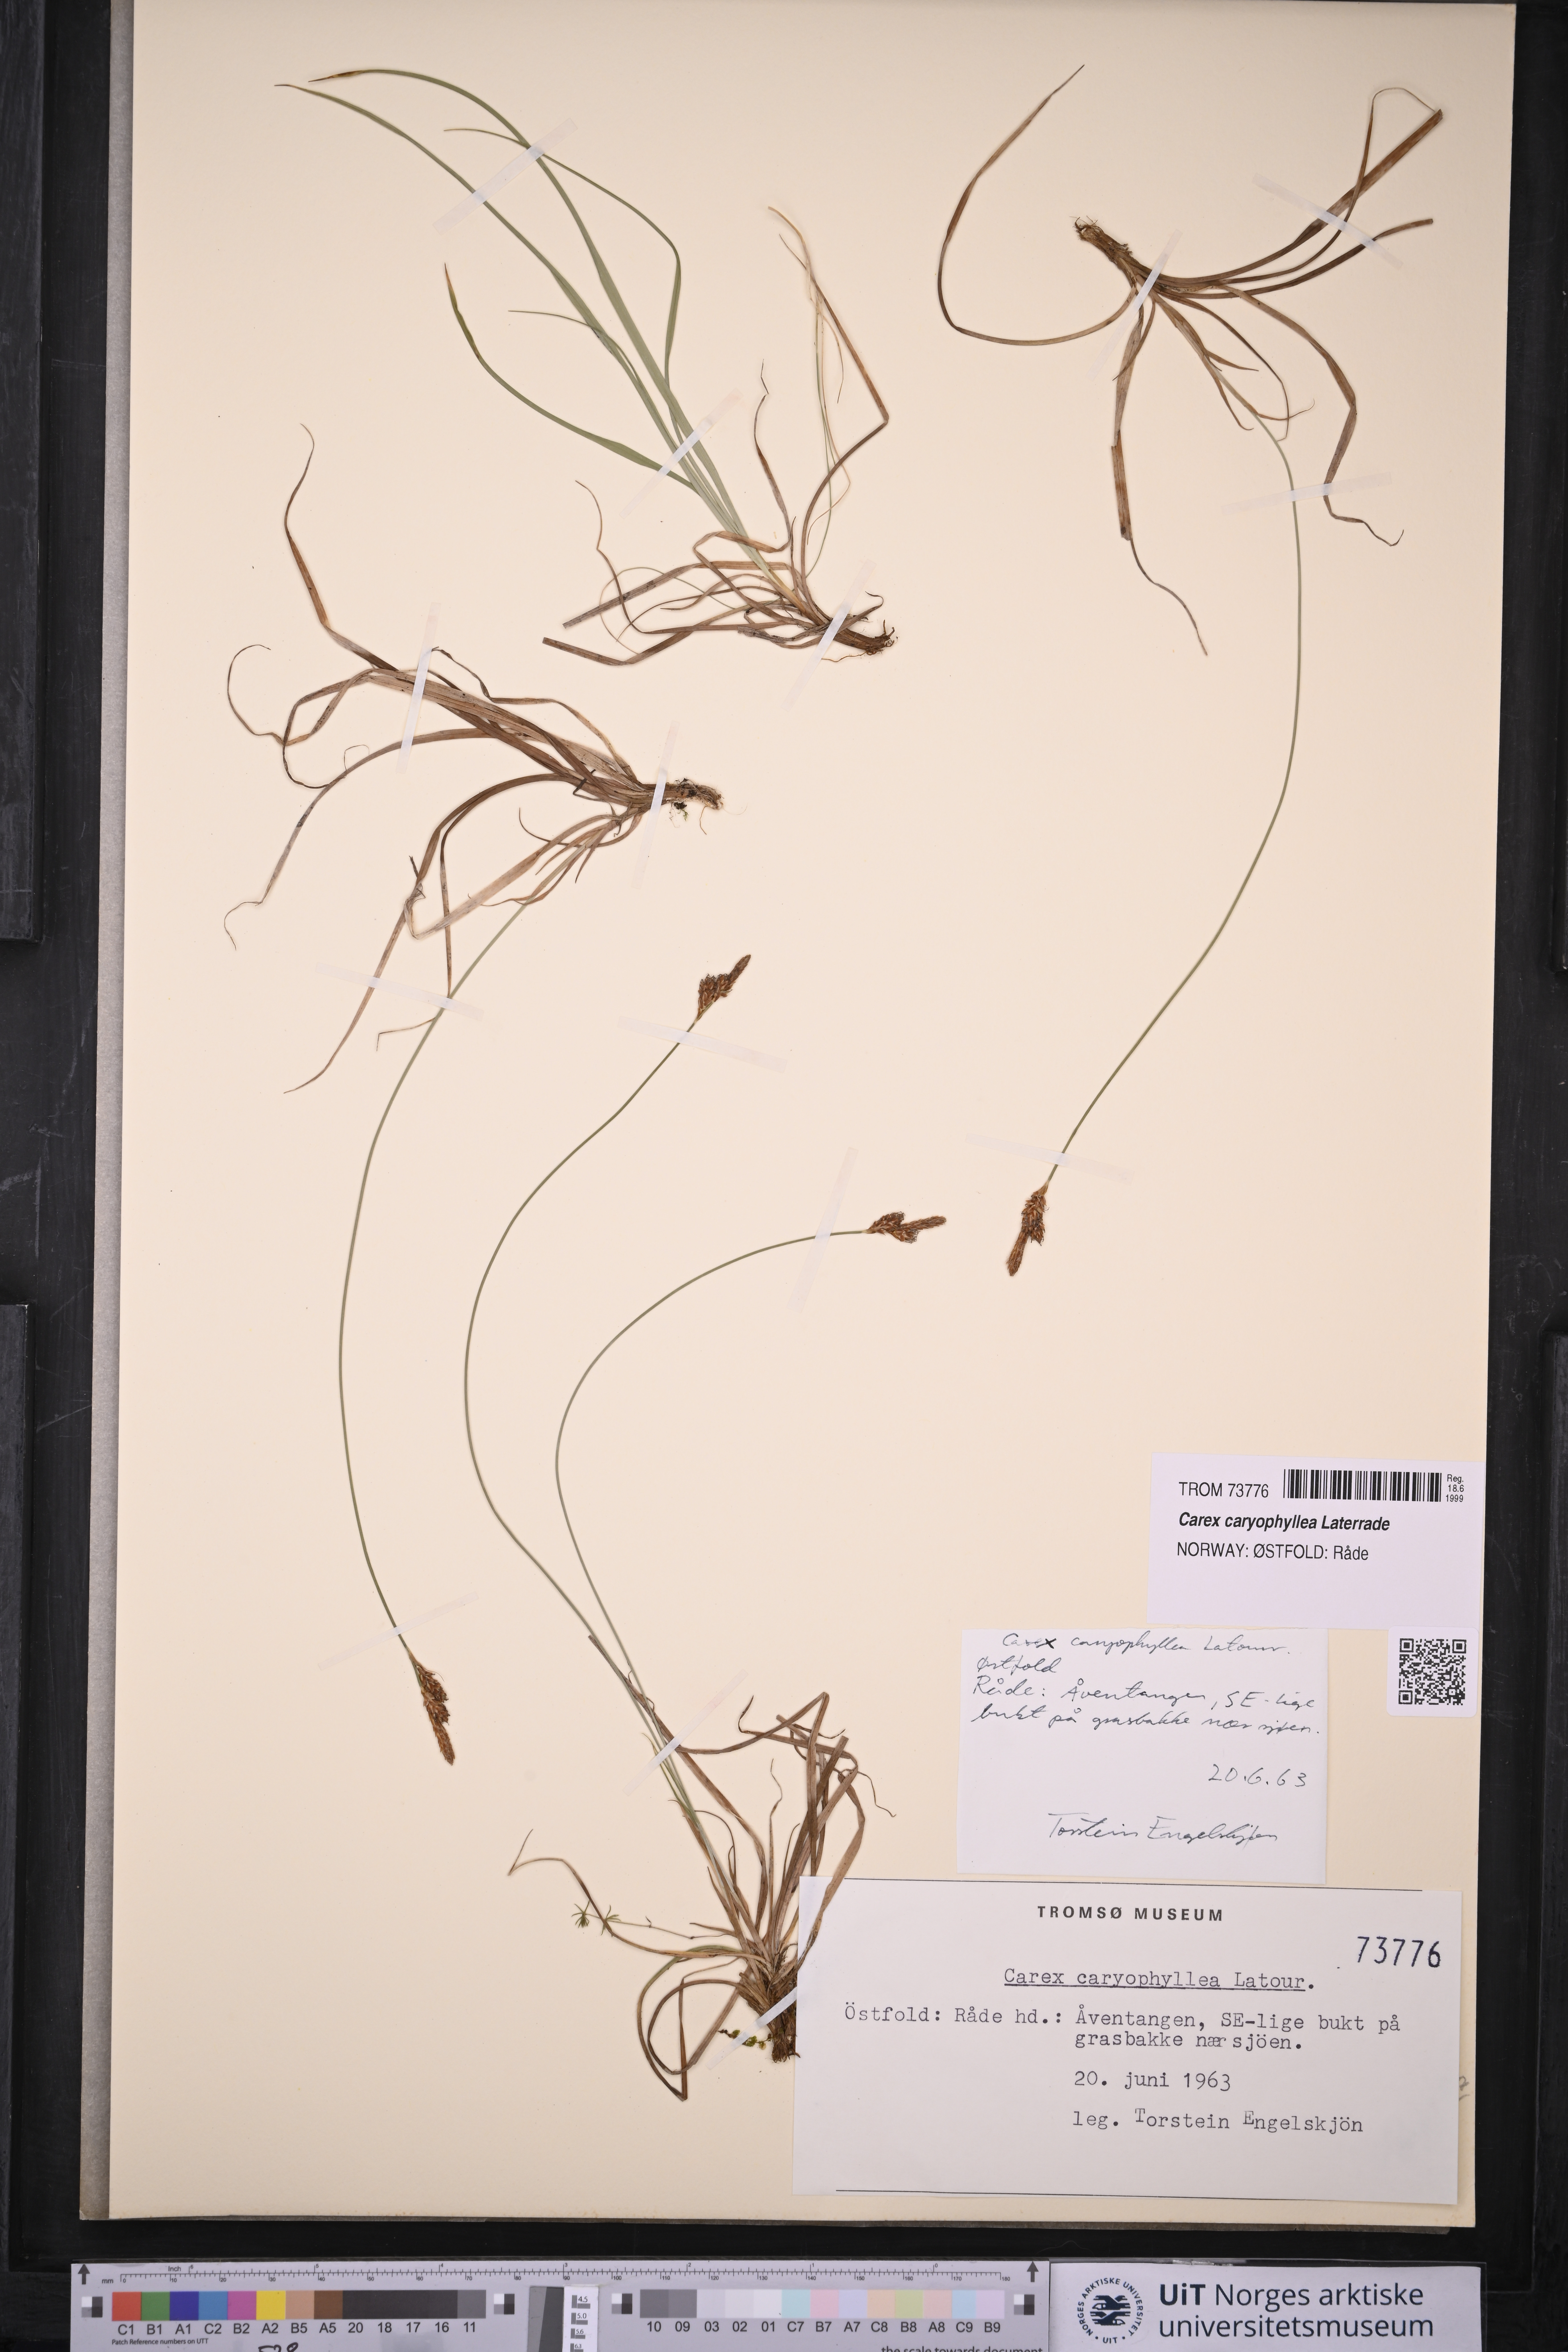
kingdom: Plantae
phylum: Tracheophyta
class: Liliopsida
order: Poales
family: Cyperaceae
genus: Carex
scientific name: Carex caryophyllea
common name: Spring sedge
